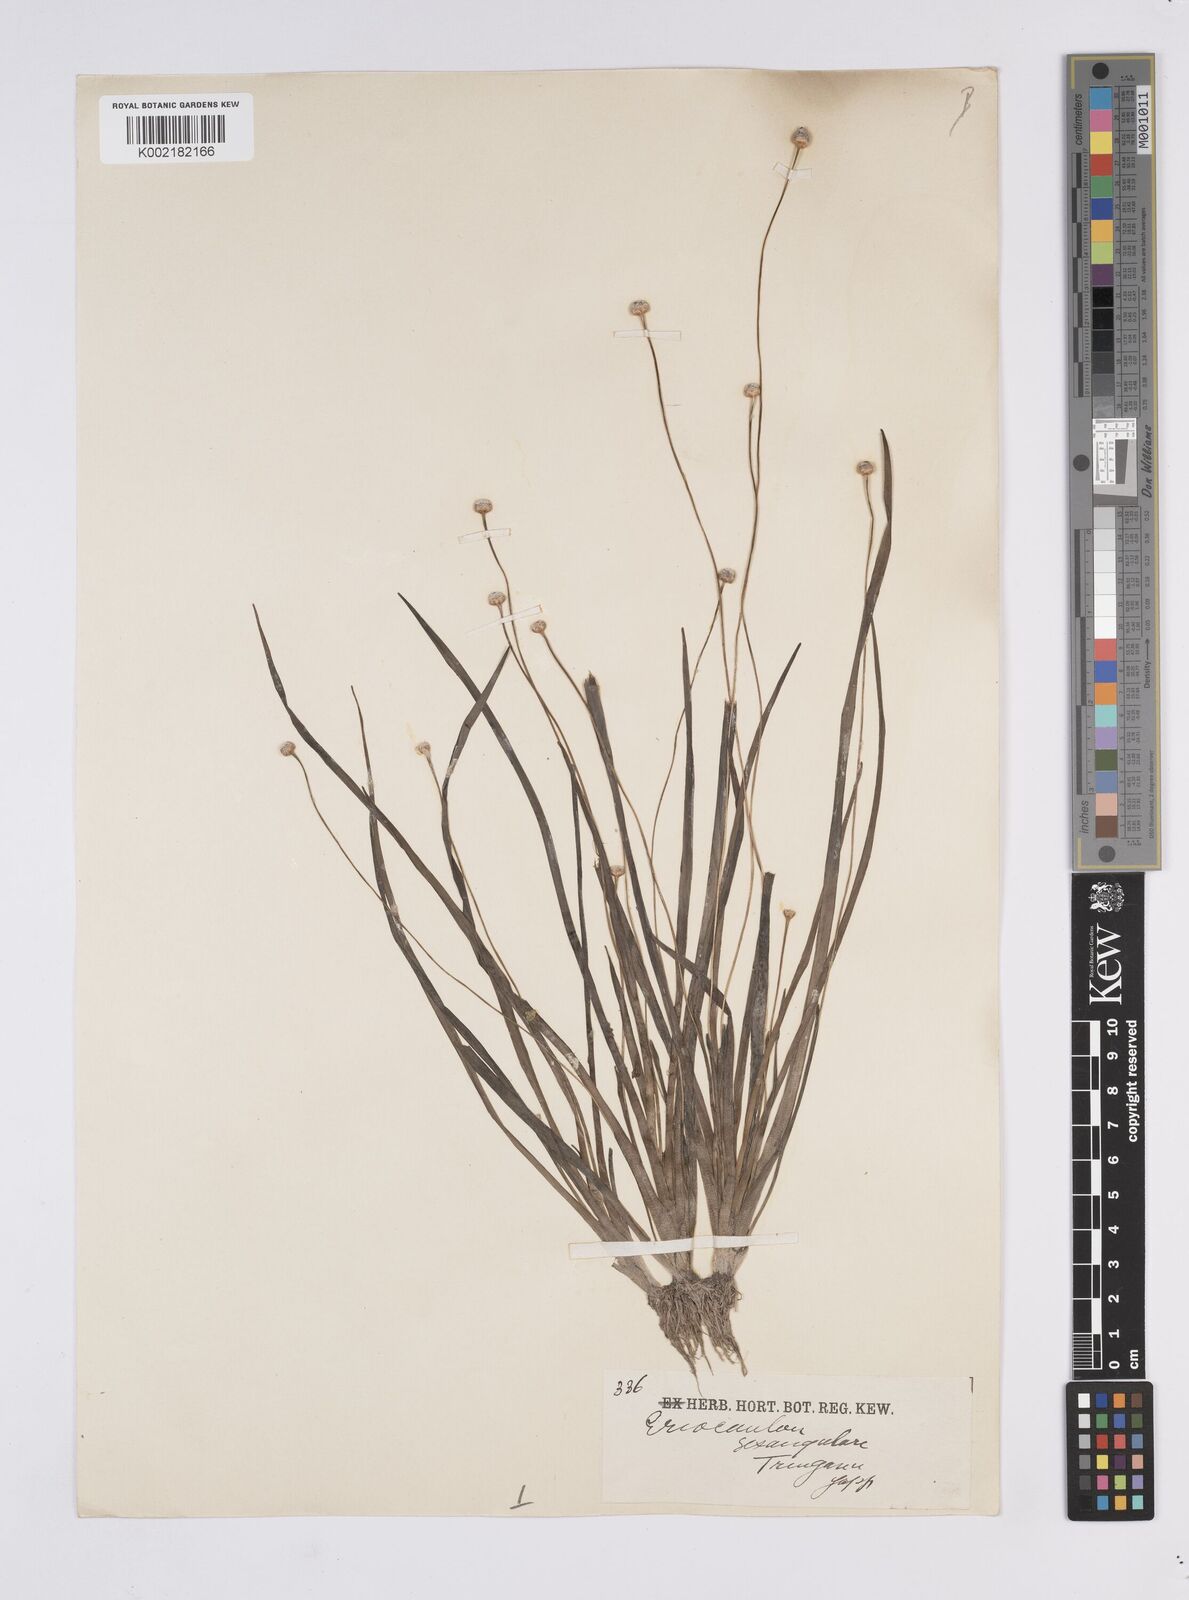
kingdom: Plantae
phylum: Tracheophyta
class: Liliopsida
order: Poales
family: Eriocaulaceae
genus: Eriocaulon
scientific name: Eriocaulon sexangulare
